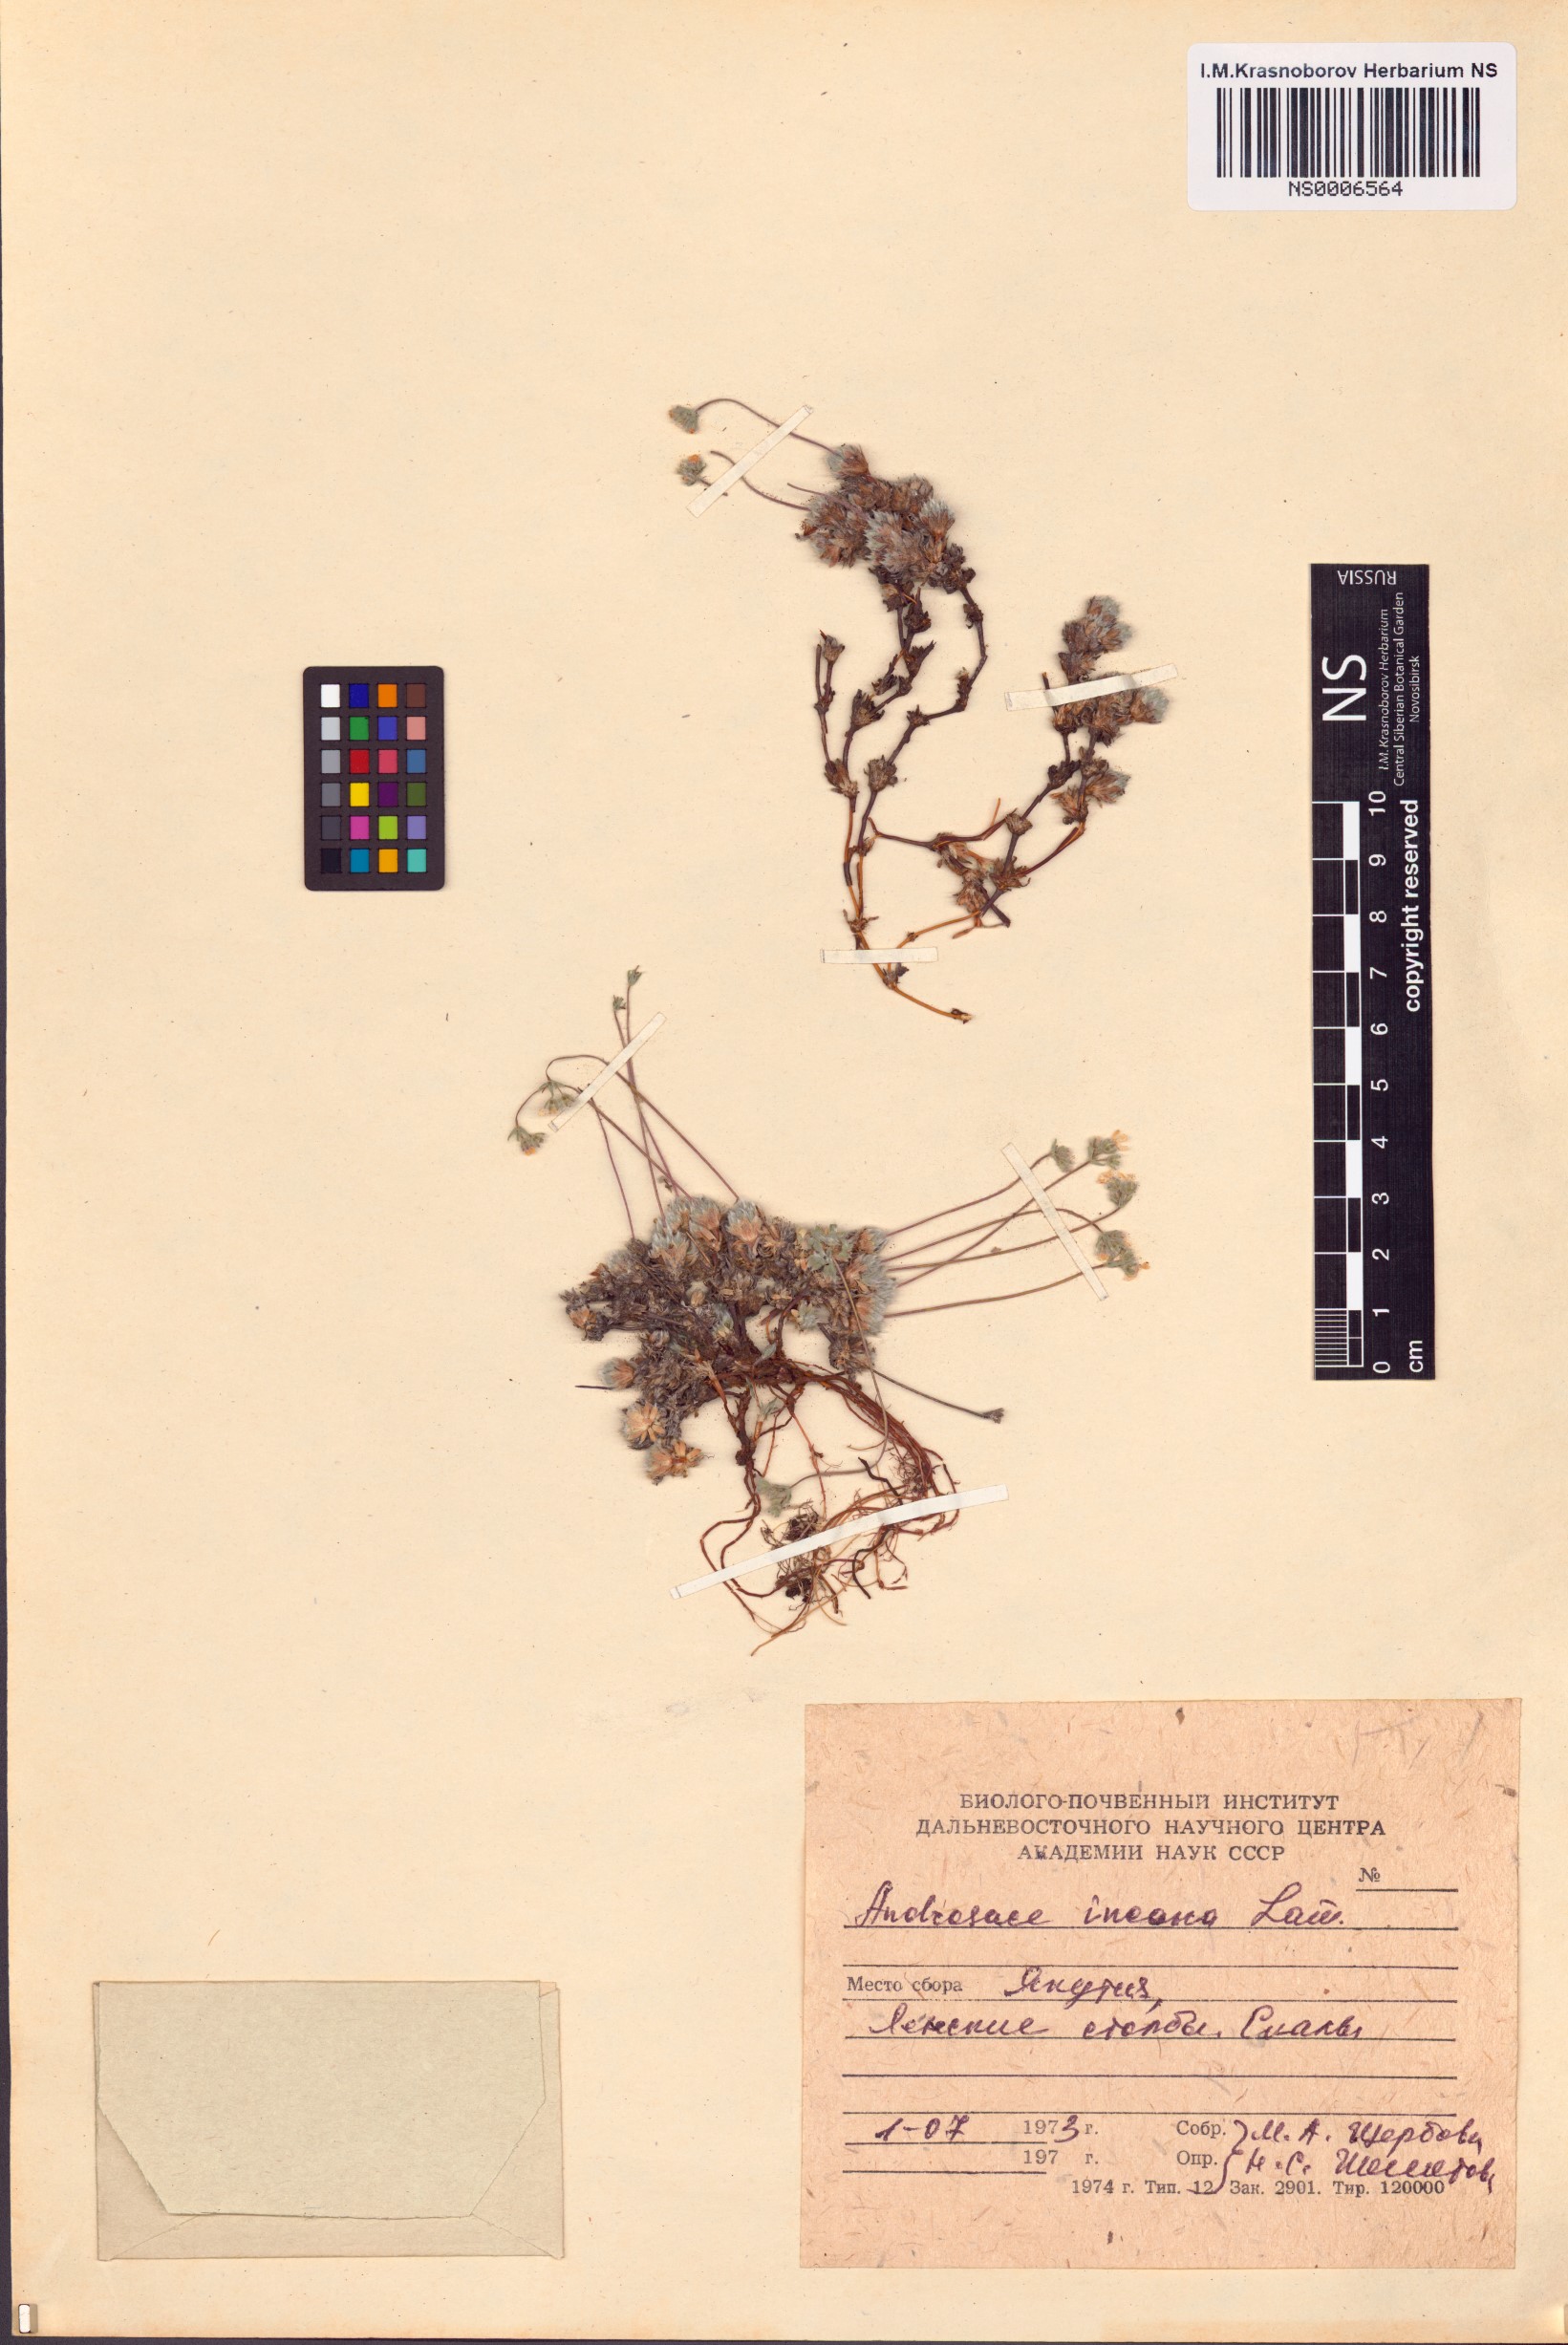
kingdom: Plantae
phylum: Tracheophyta
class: Magnoliopsida
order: Ericales
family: Primulaceae
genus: Androsace
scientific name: Androsace incana
